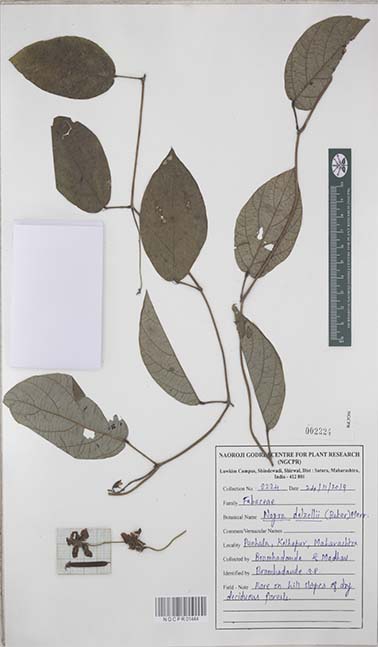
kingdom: Plantae
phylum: Tracheophyta
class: Magnoliopsida
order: Fabales
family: Fabaceae
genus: Nogra
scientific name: Nogra dalzellii
